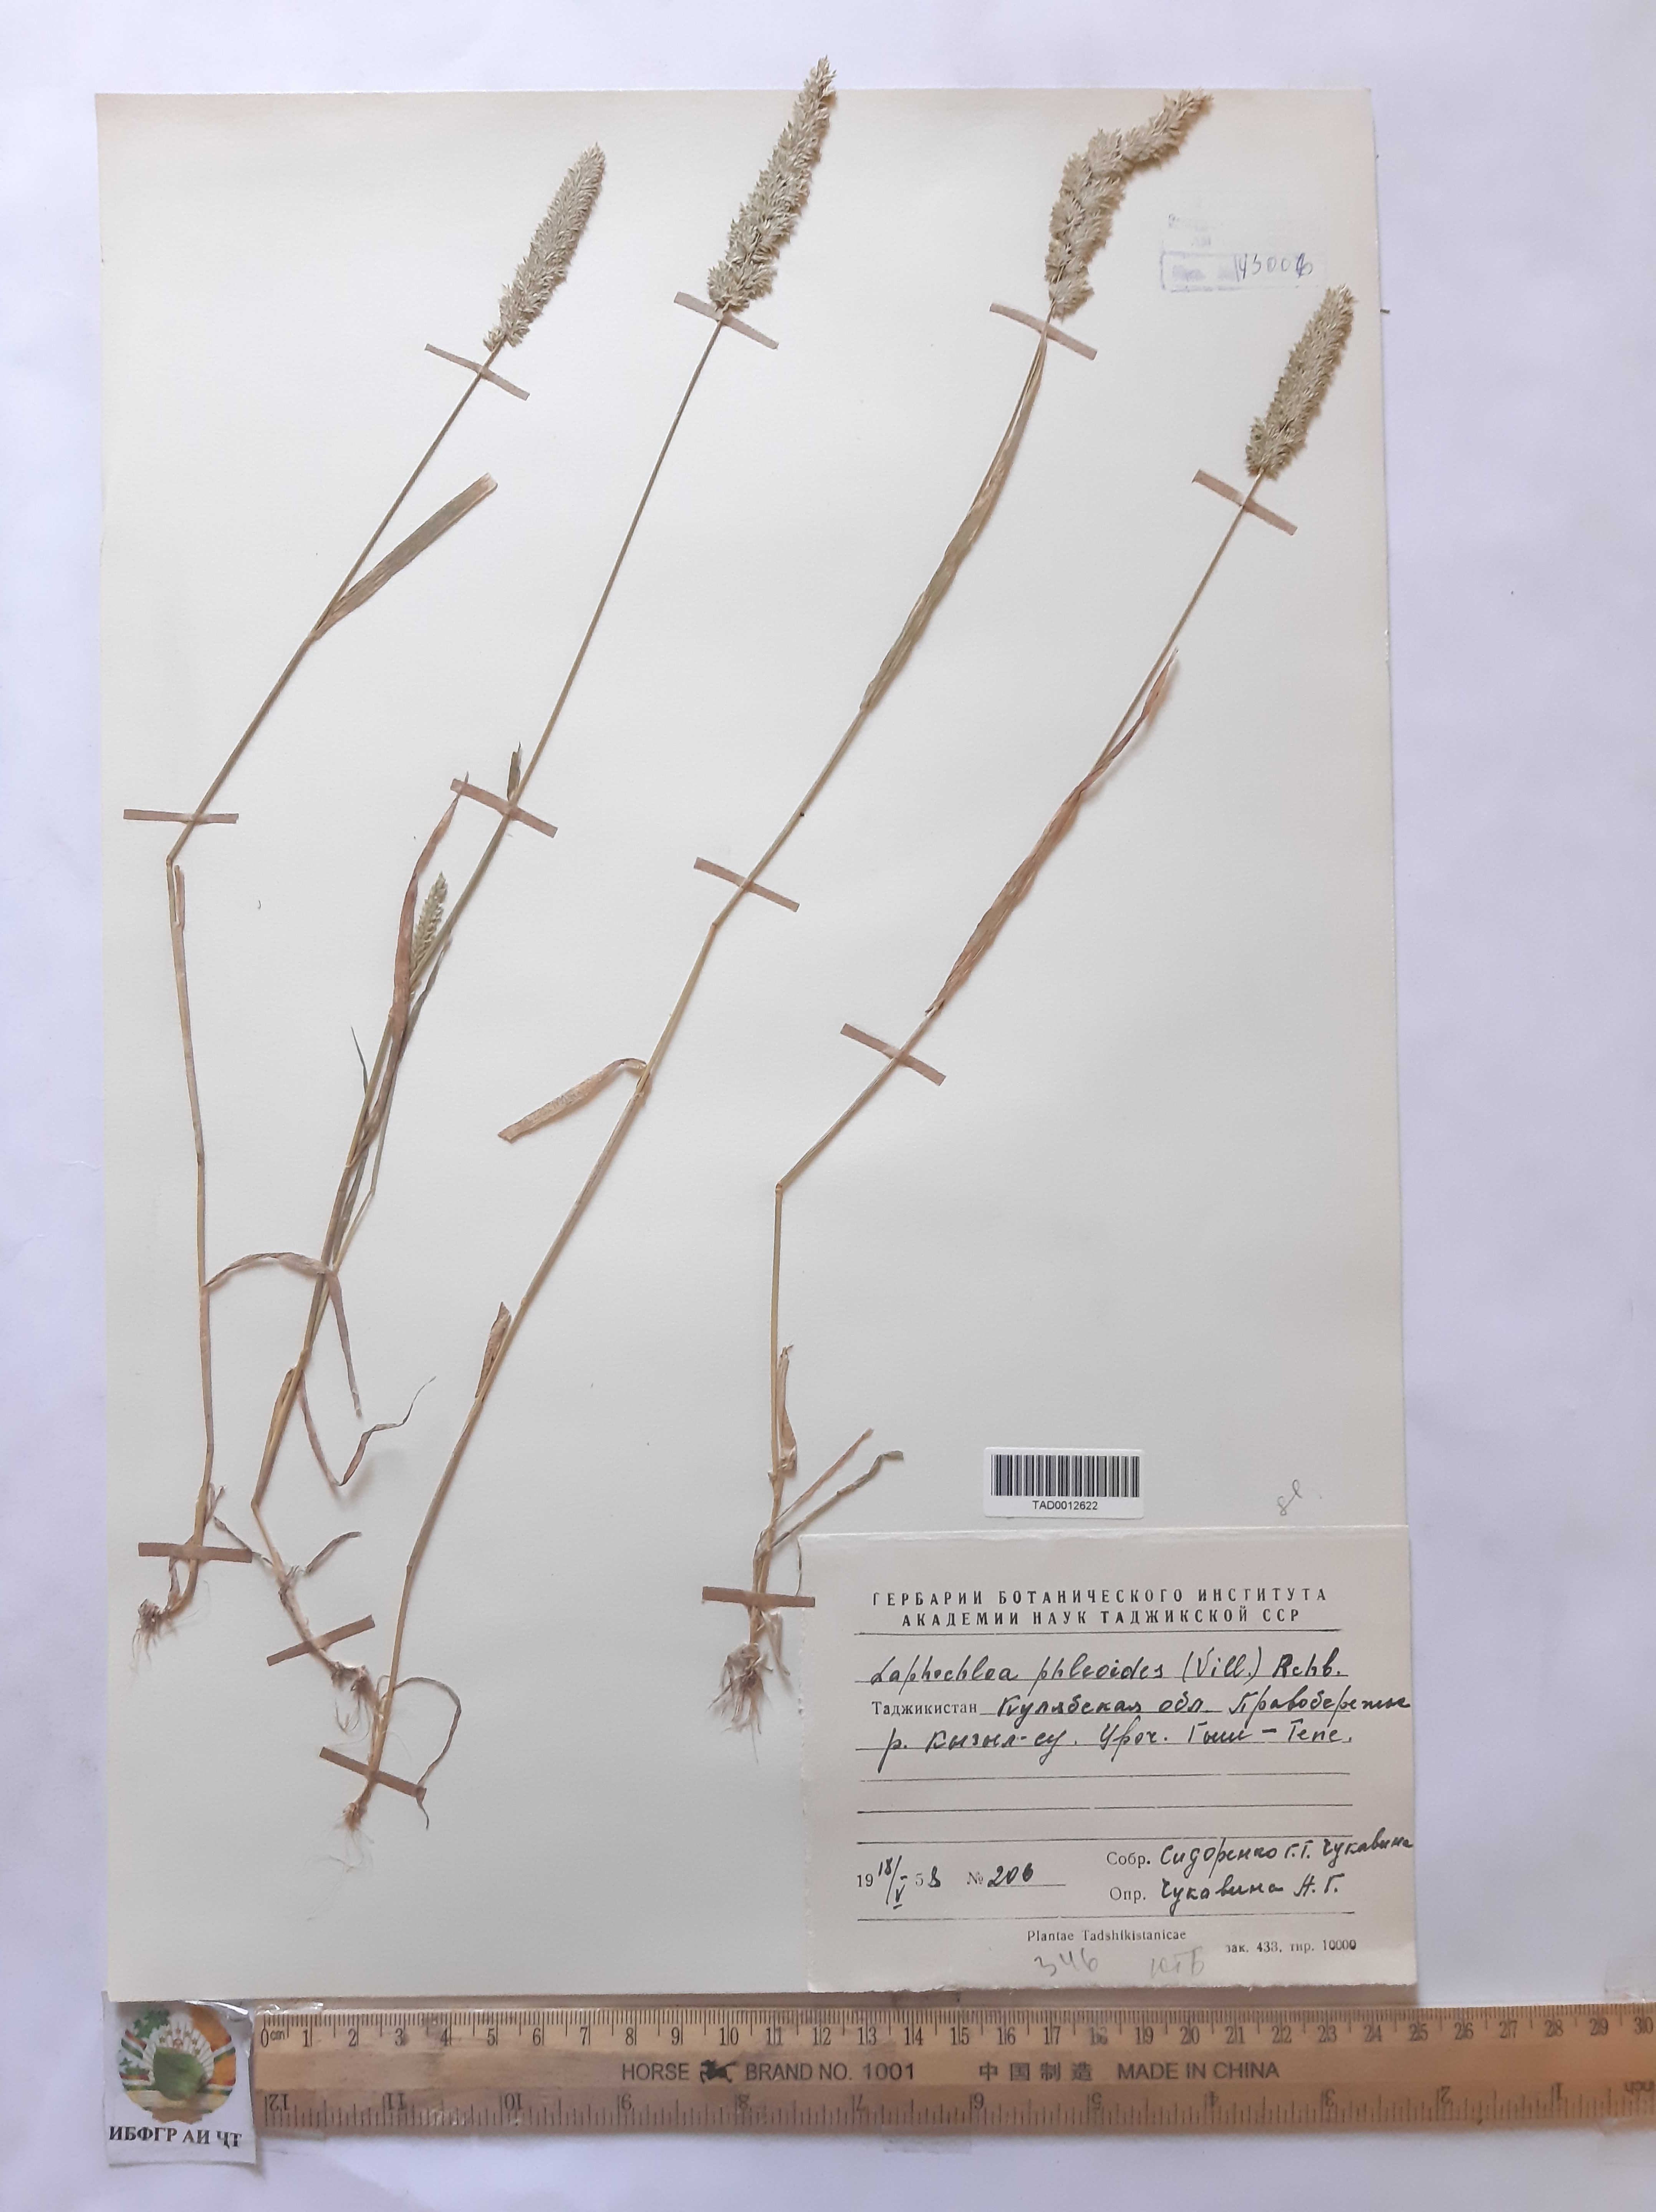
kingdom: Plantae
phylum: Tracheophyta
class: Liliopsida
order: Poales
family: Poaceae
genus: Rostraria
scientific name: Rostraria cristata
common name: Mediterranean hair-grass
